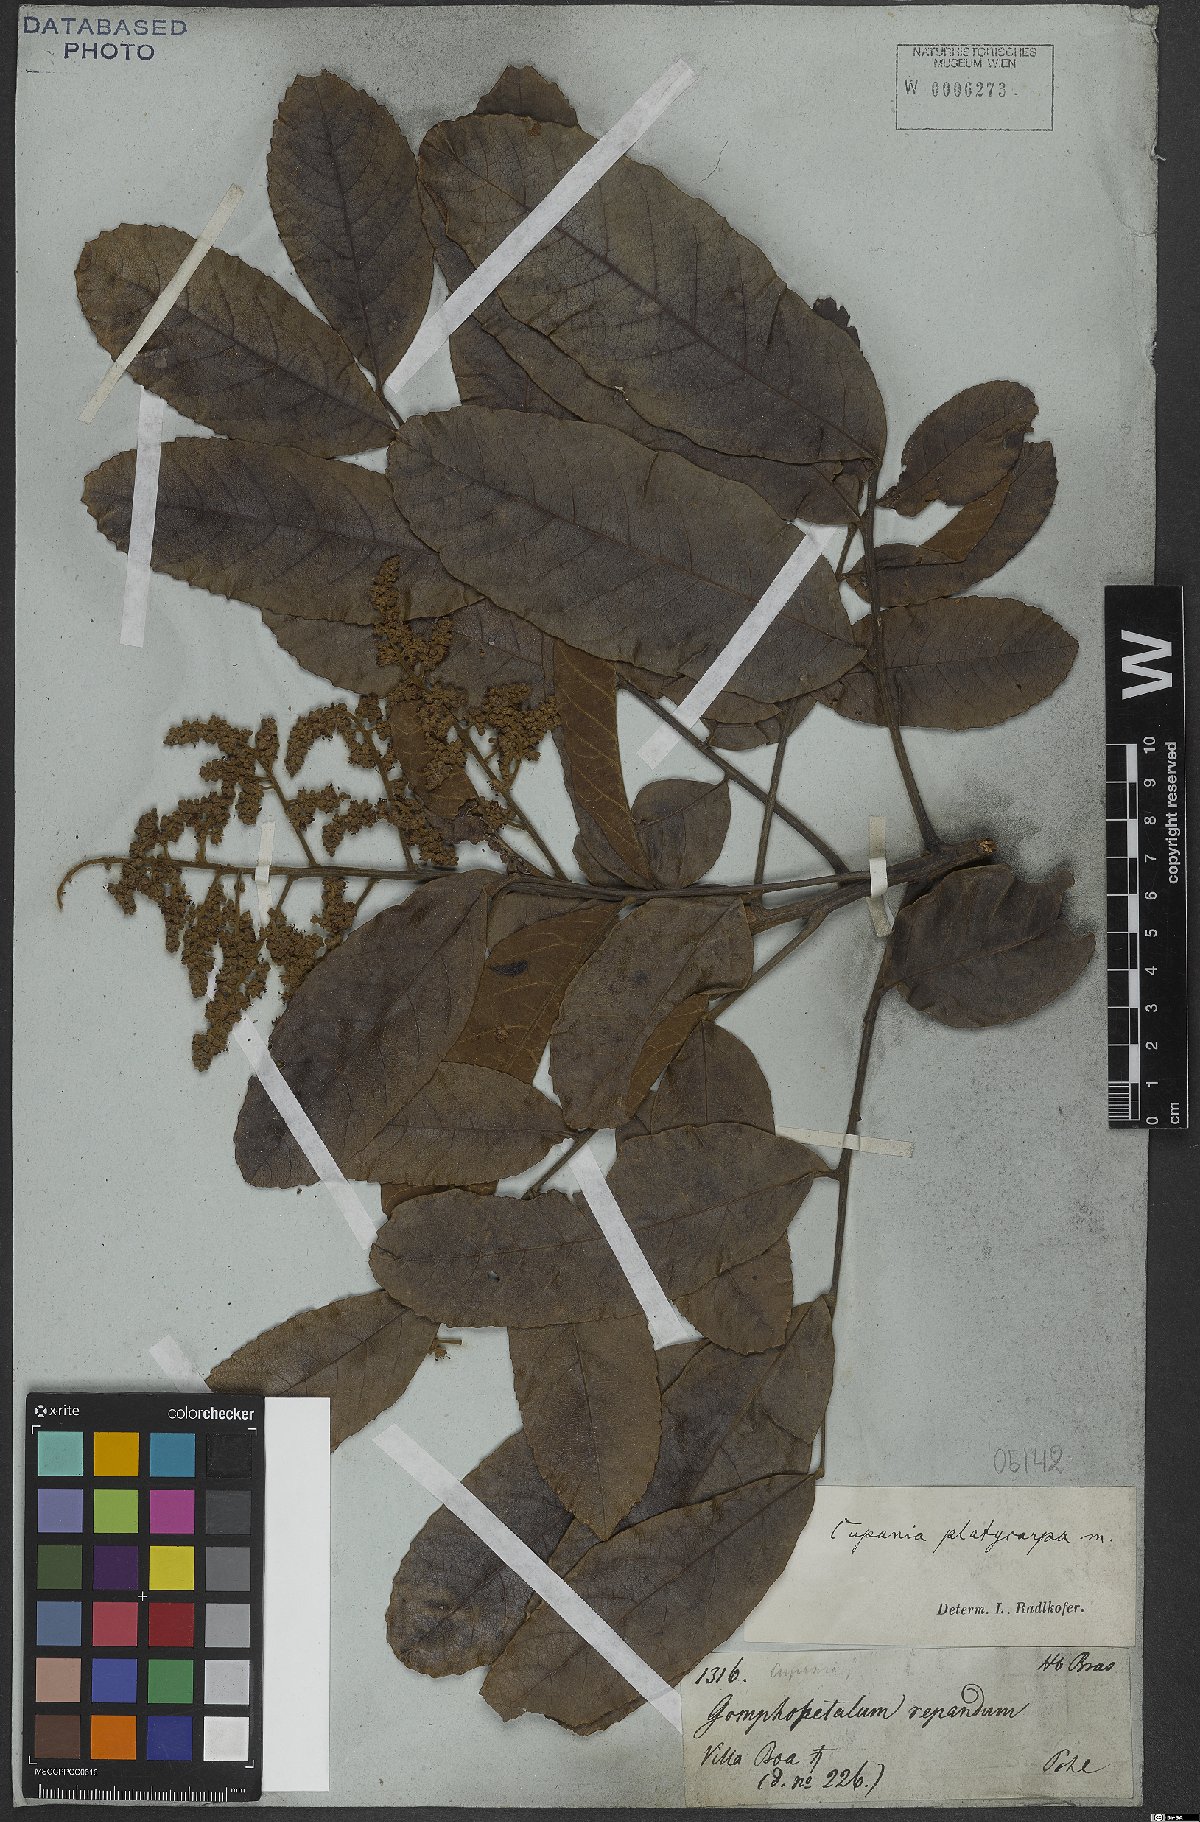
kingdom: Plantae
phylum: Tracheophyta
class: Magnoliopsida
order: Sapindales
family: Sapindaceae
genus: Cupania
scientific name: Cupania platycarpa
